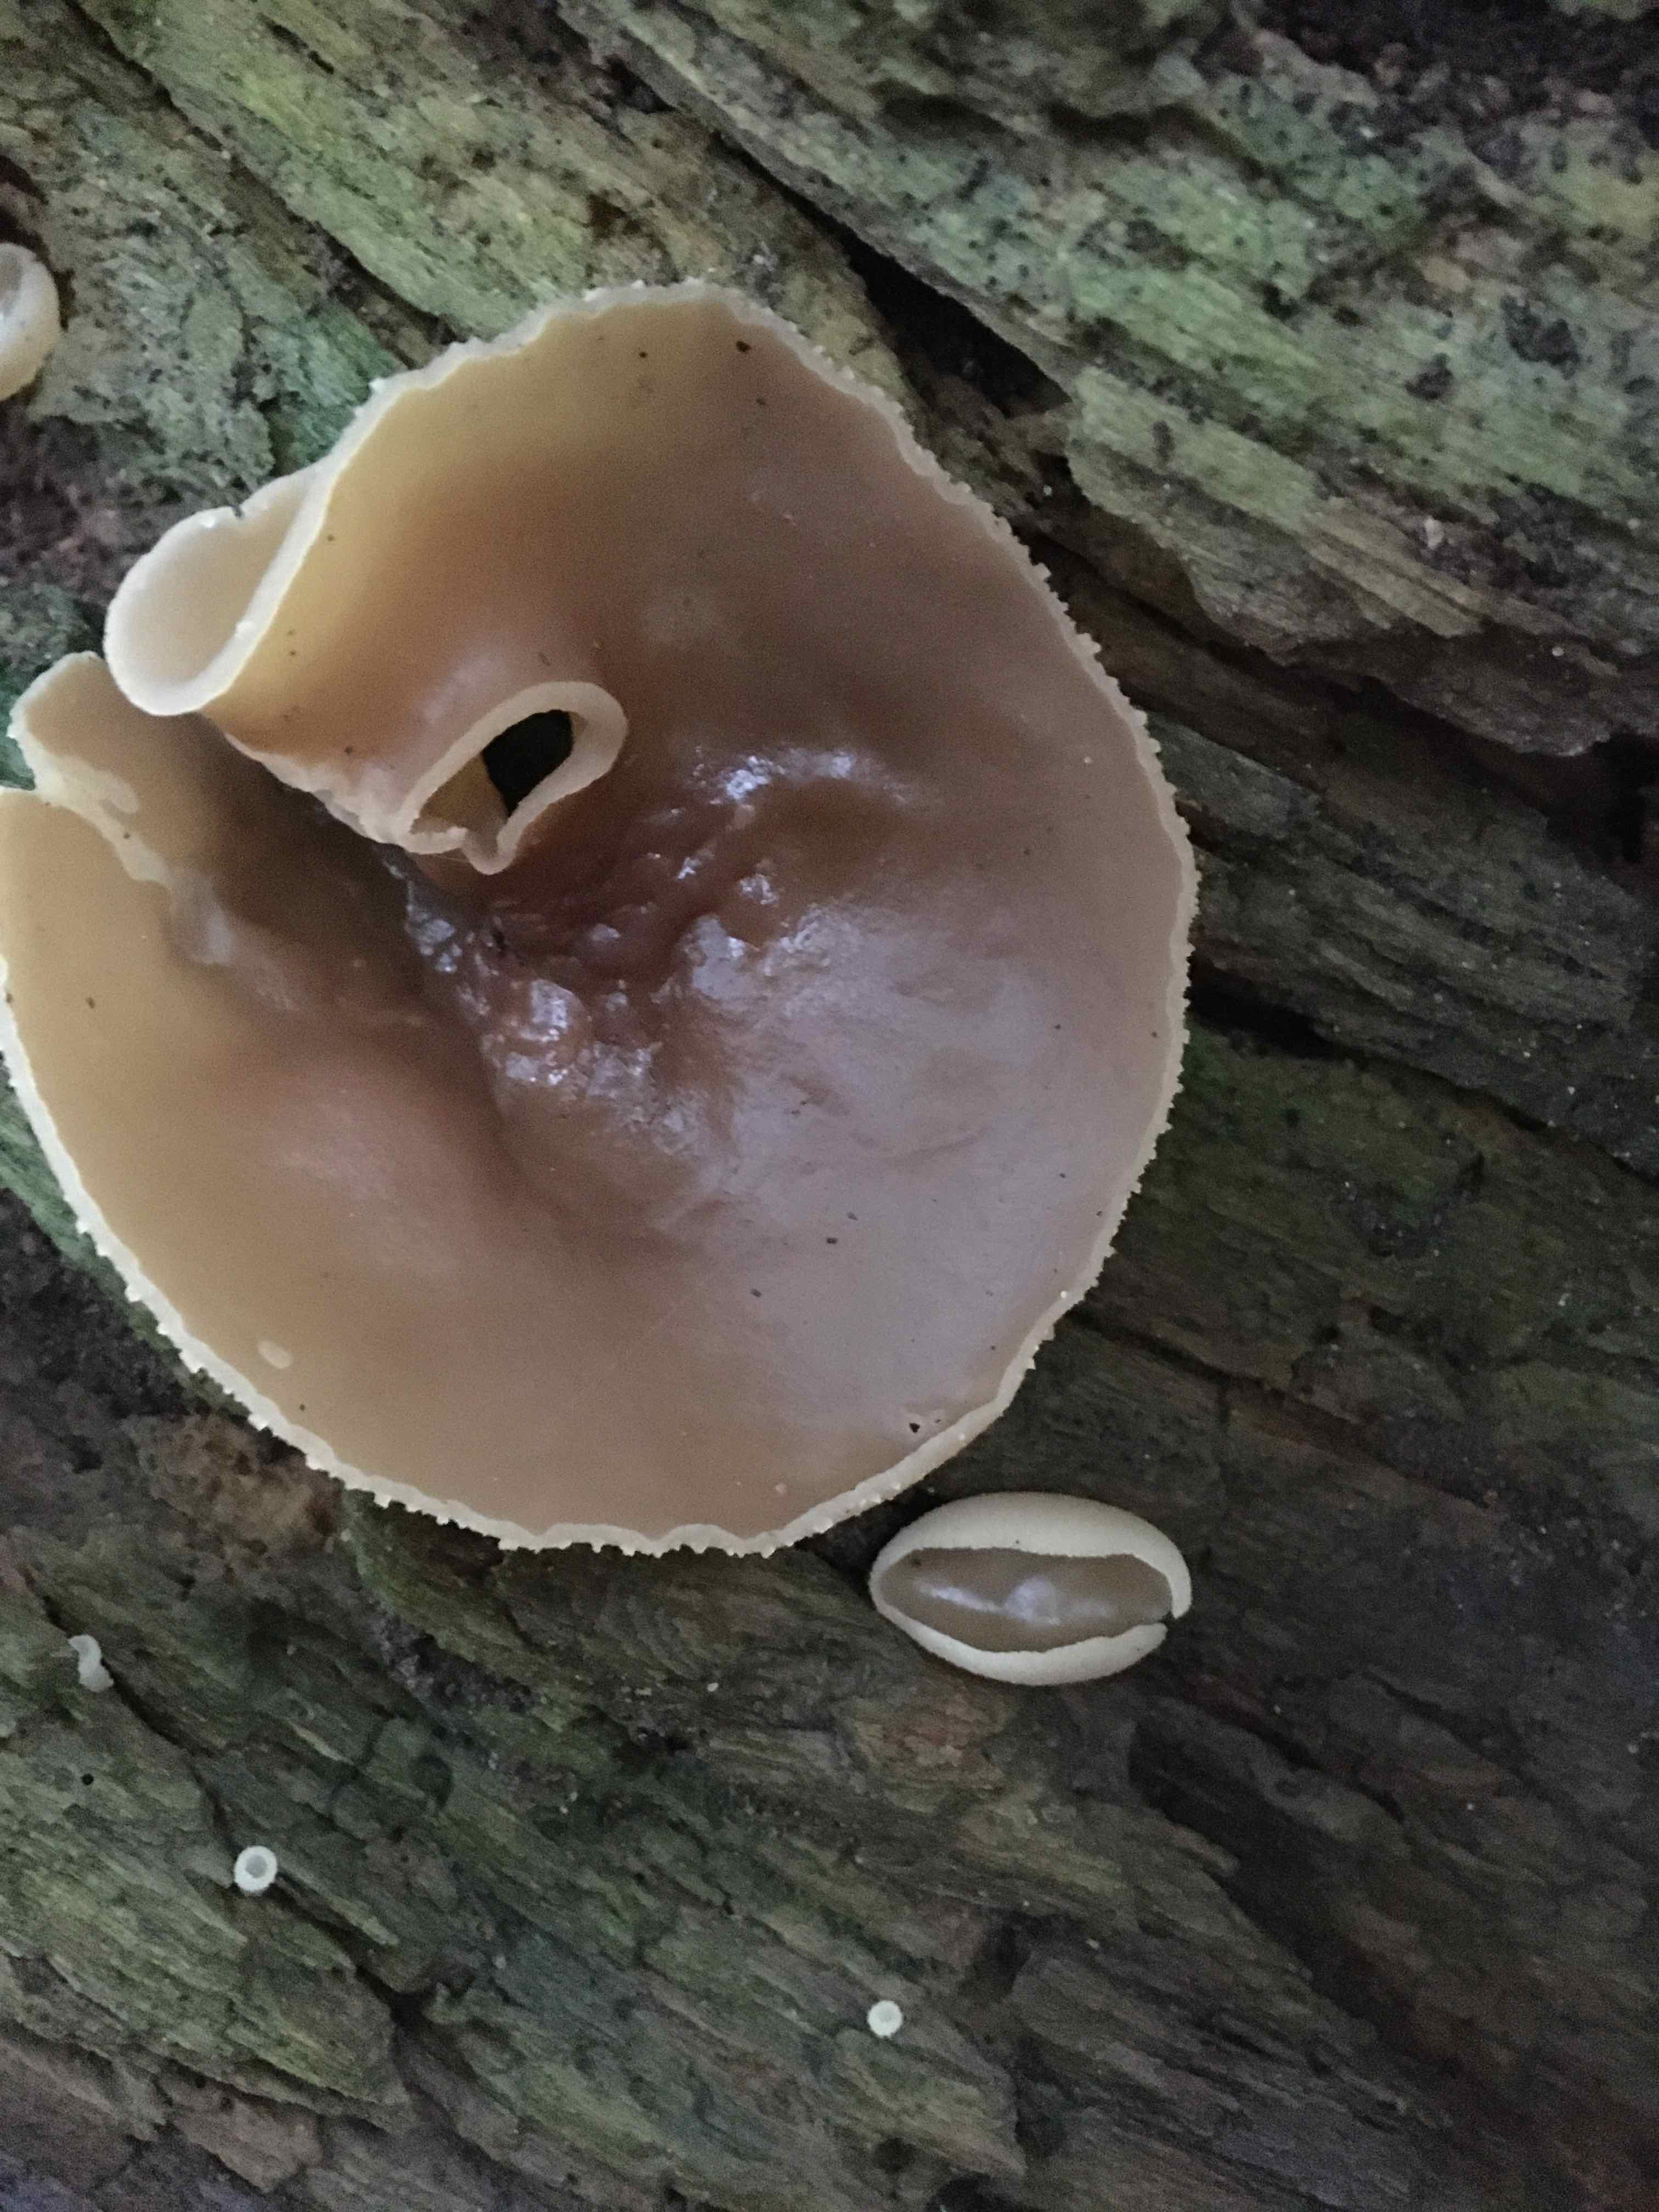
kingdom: Fungi
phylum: Ascomycota
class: Pezizomycetes
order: Pezizales
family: Pezizaceae
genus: Peziza
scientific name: Peziza varia
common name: Ved-bægersvamp
